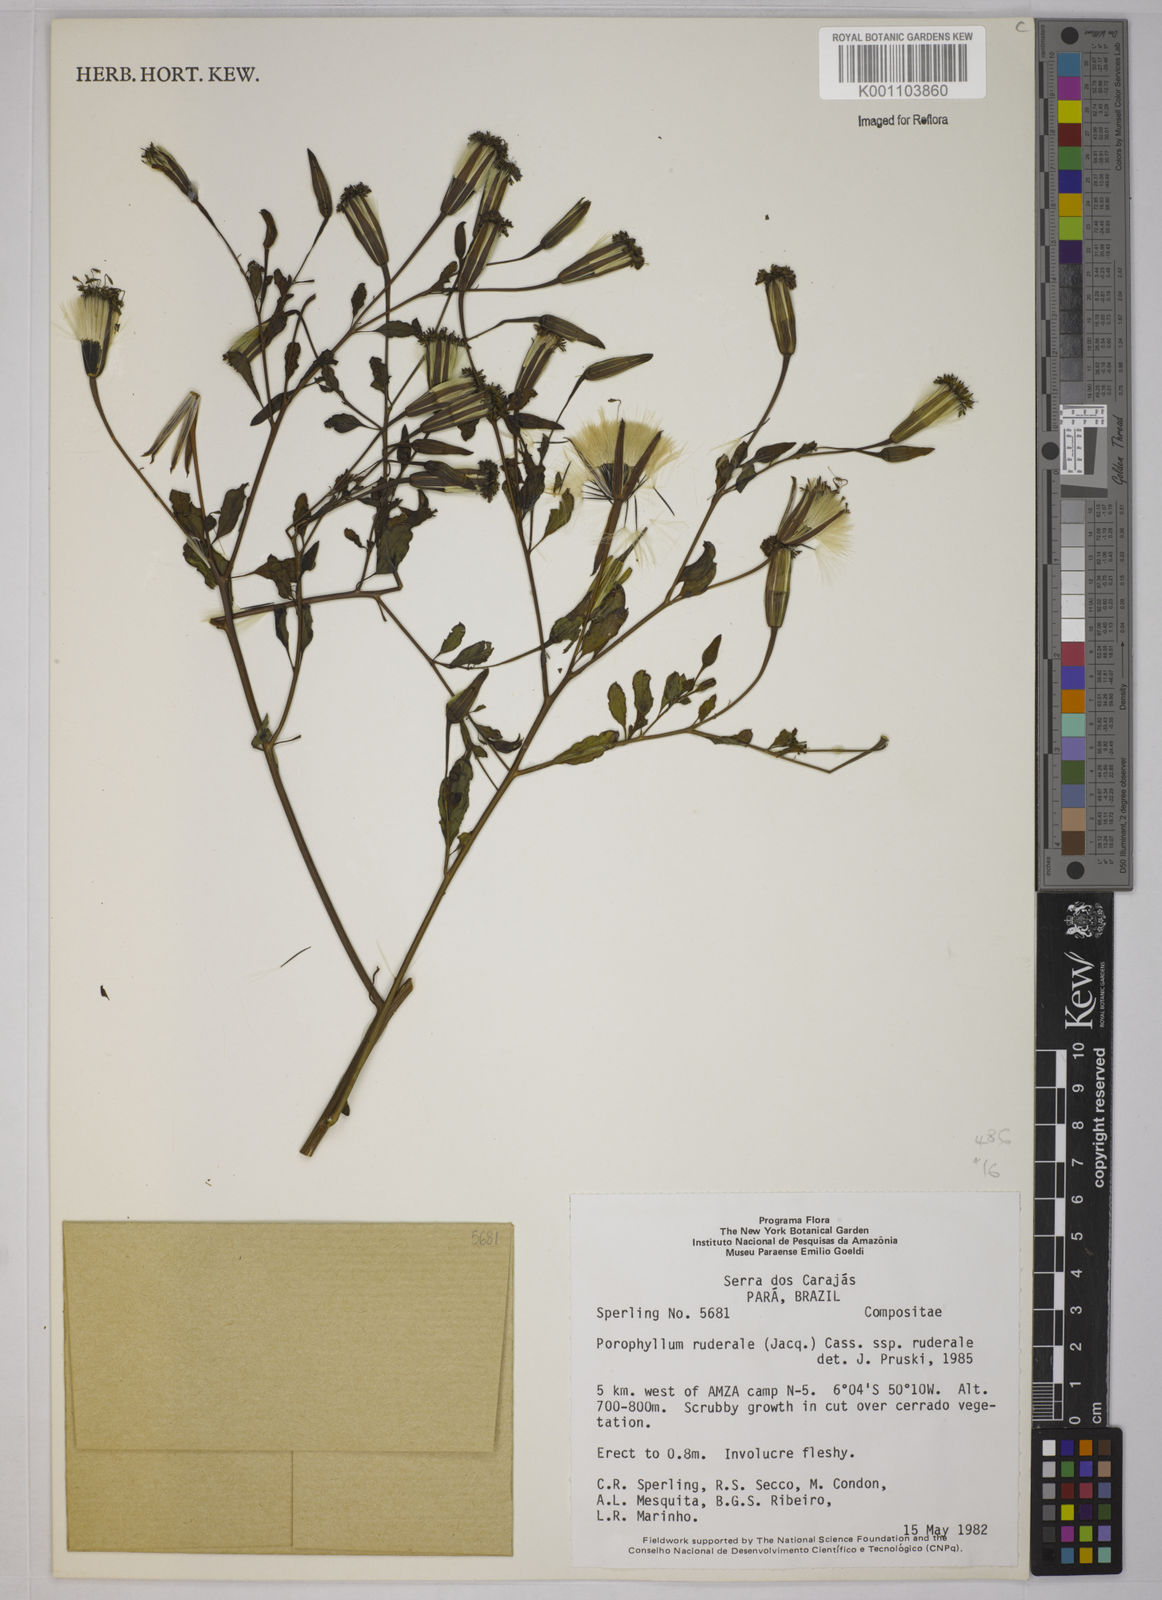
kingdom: Plantae
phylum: Tracheophyta
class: Magnoliopsida
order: Asterales
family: Asteraceae
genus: Porophyllum
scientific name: Porophyllum ruderale
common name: Yerba porosa
